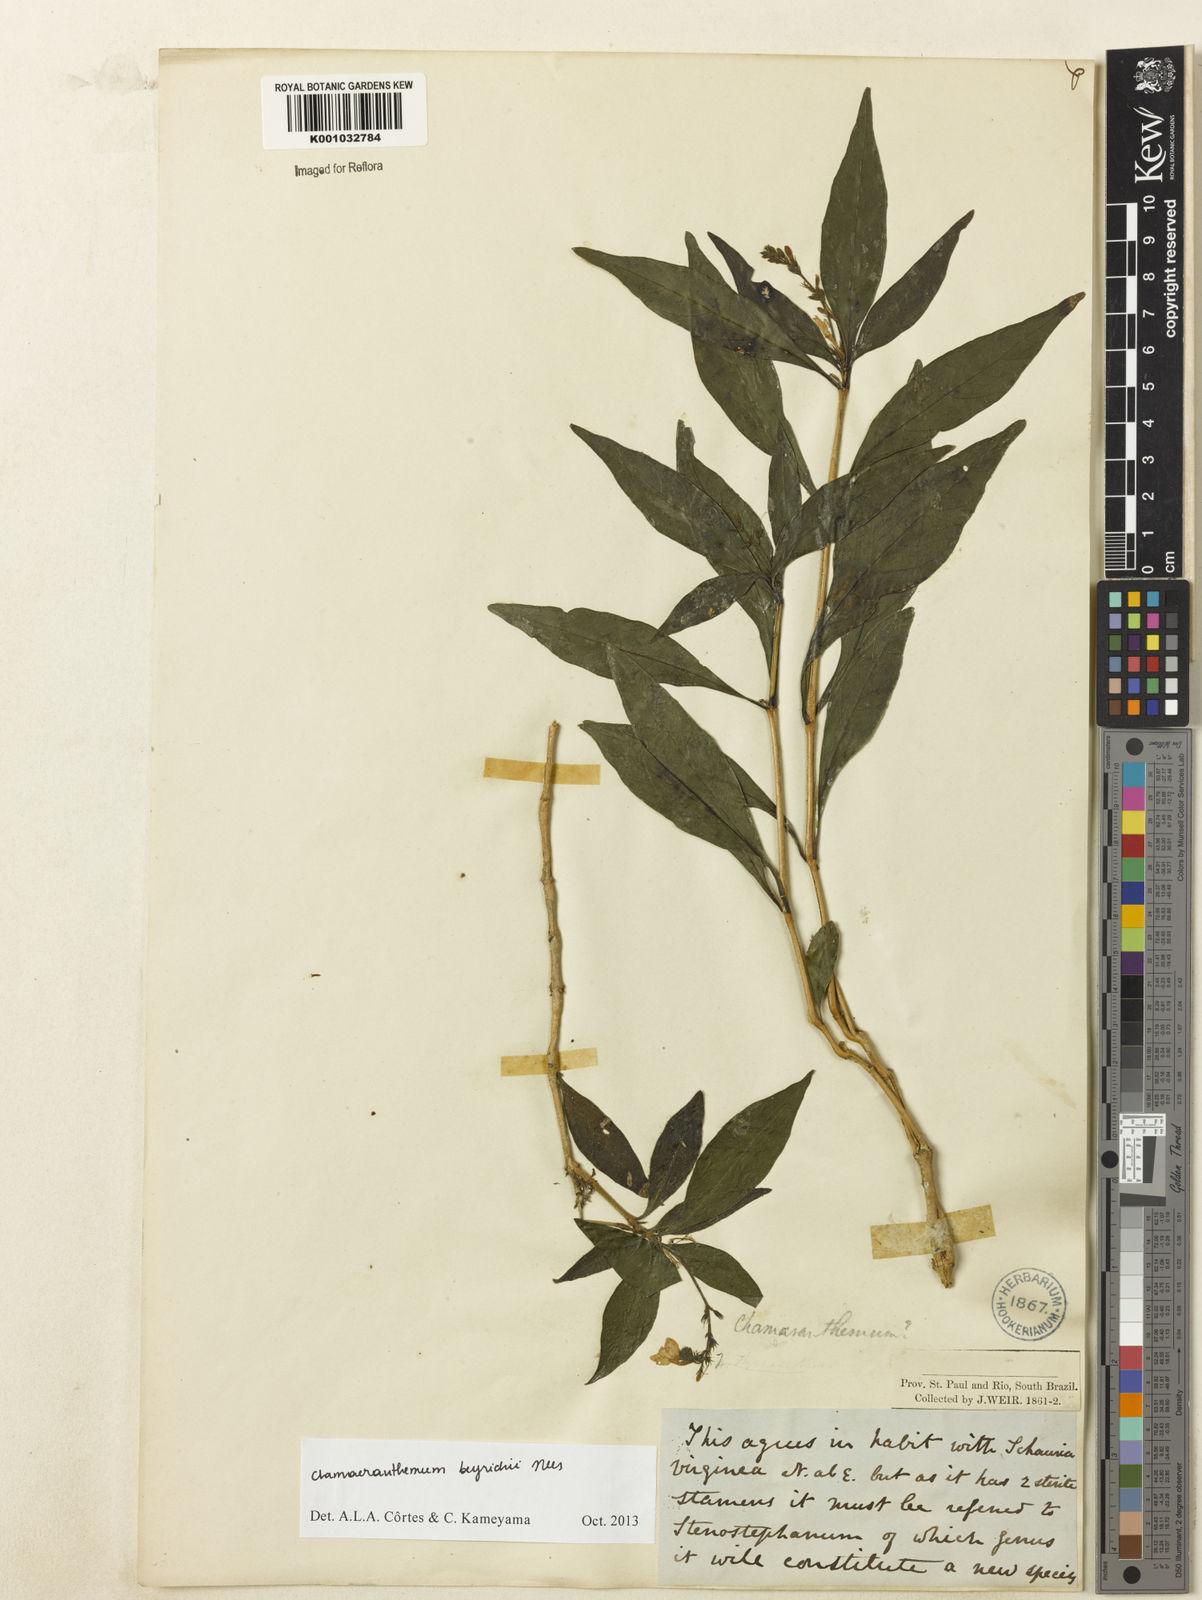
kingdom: Plantae
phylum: Tracheophyta
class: Magnoliopsida
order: Lamiales
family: Acanthaceae
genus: Chamaeranthemum
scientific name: Chamaeranthemum beyrichii
